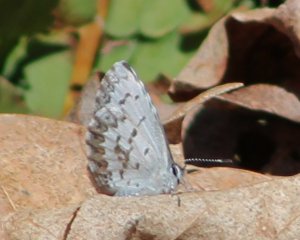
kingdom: Animalia
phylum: Arthropoda
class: Insecta
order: Lepidoptera
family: Lycaenidae
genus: Celastrina
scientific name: Celastrina lucia
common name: Northern Spring Azure
